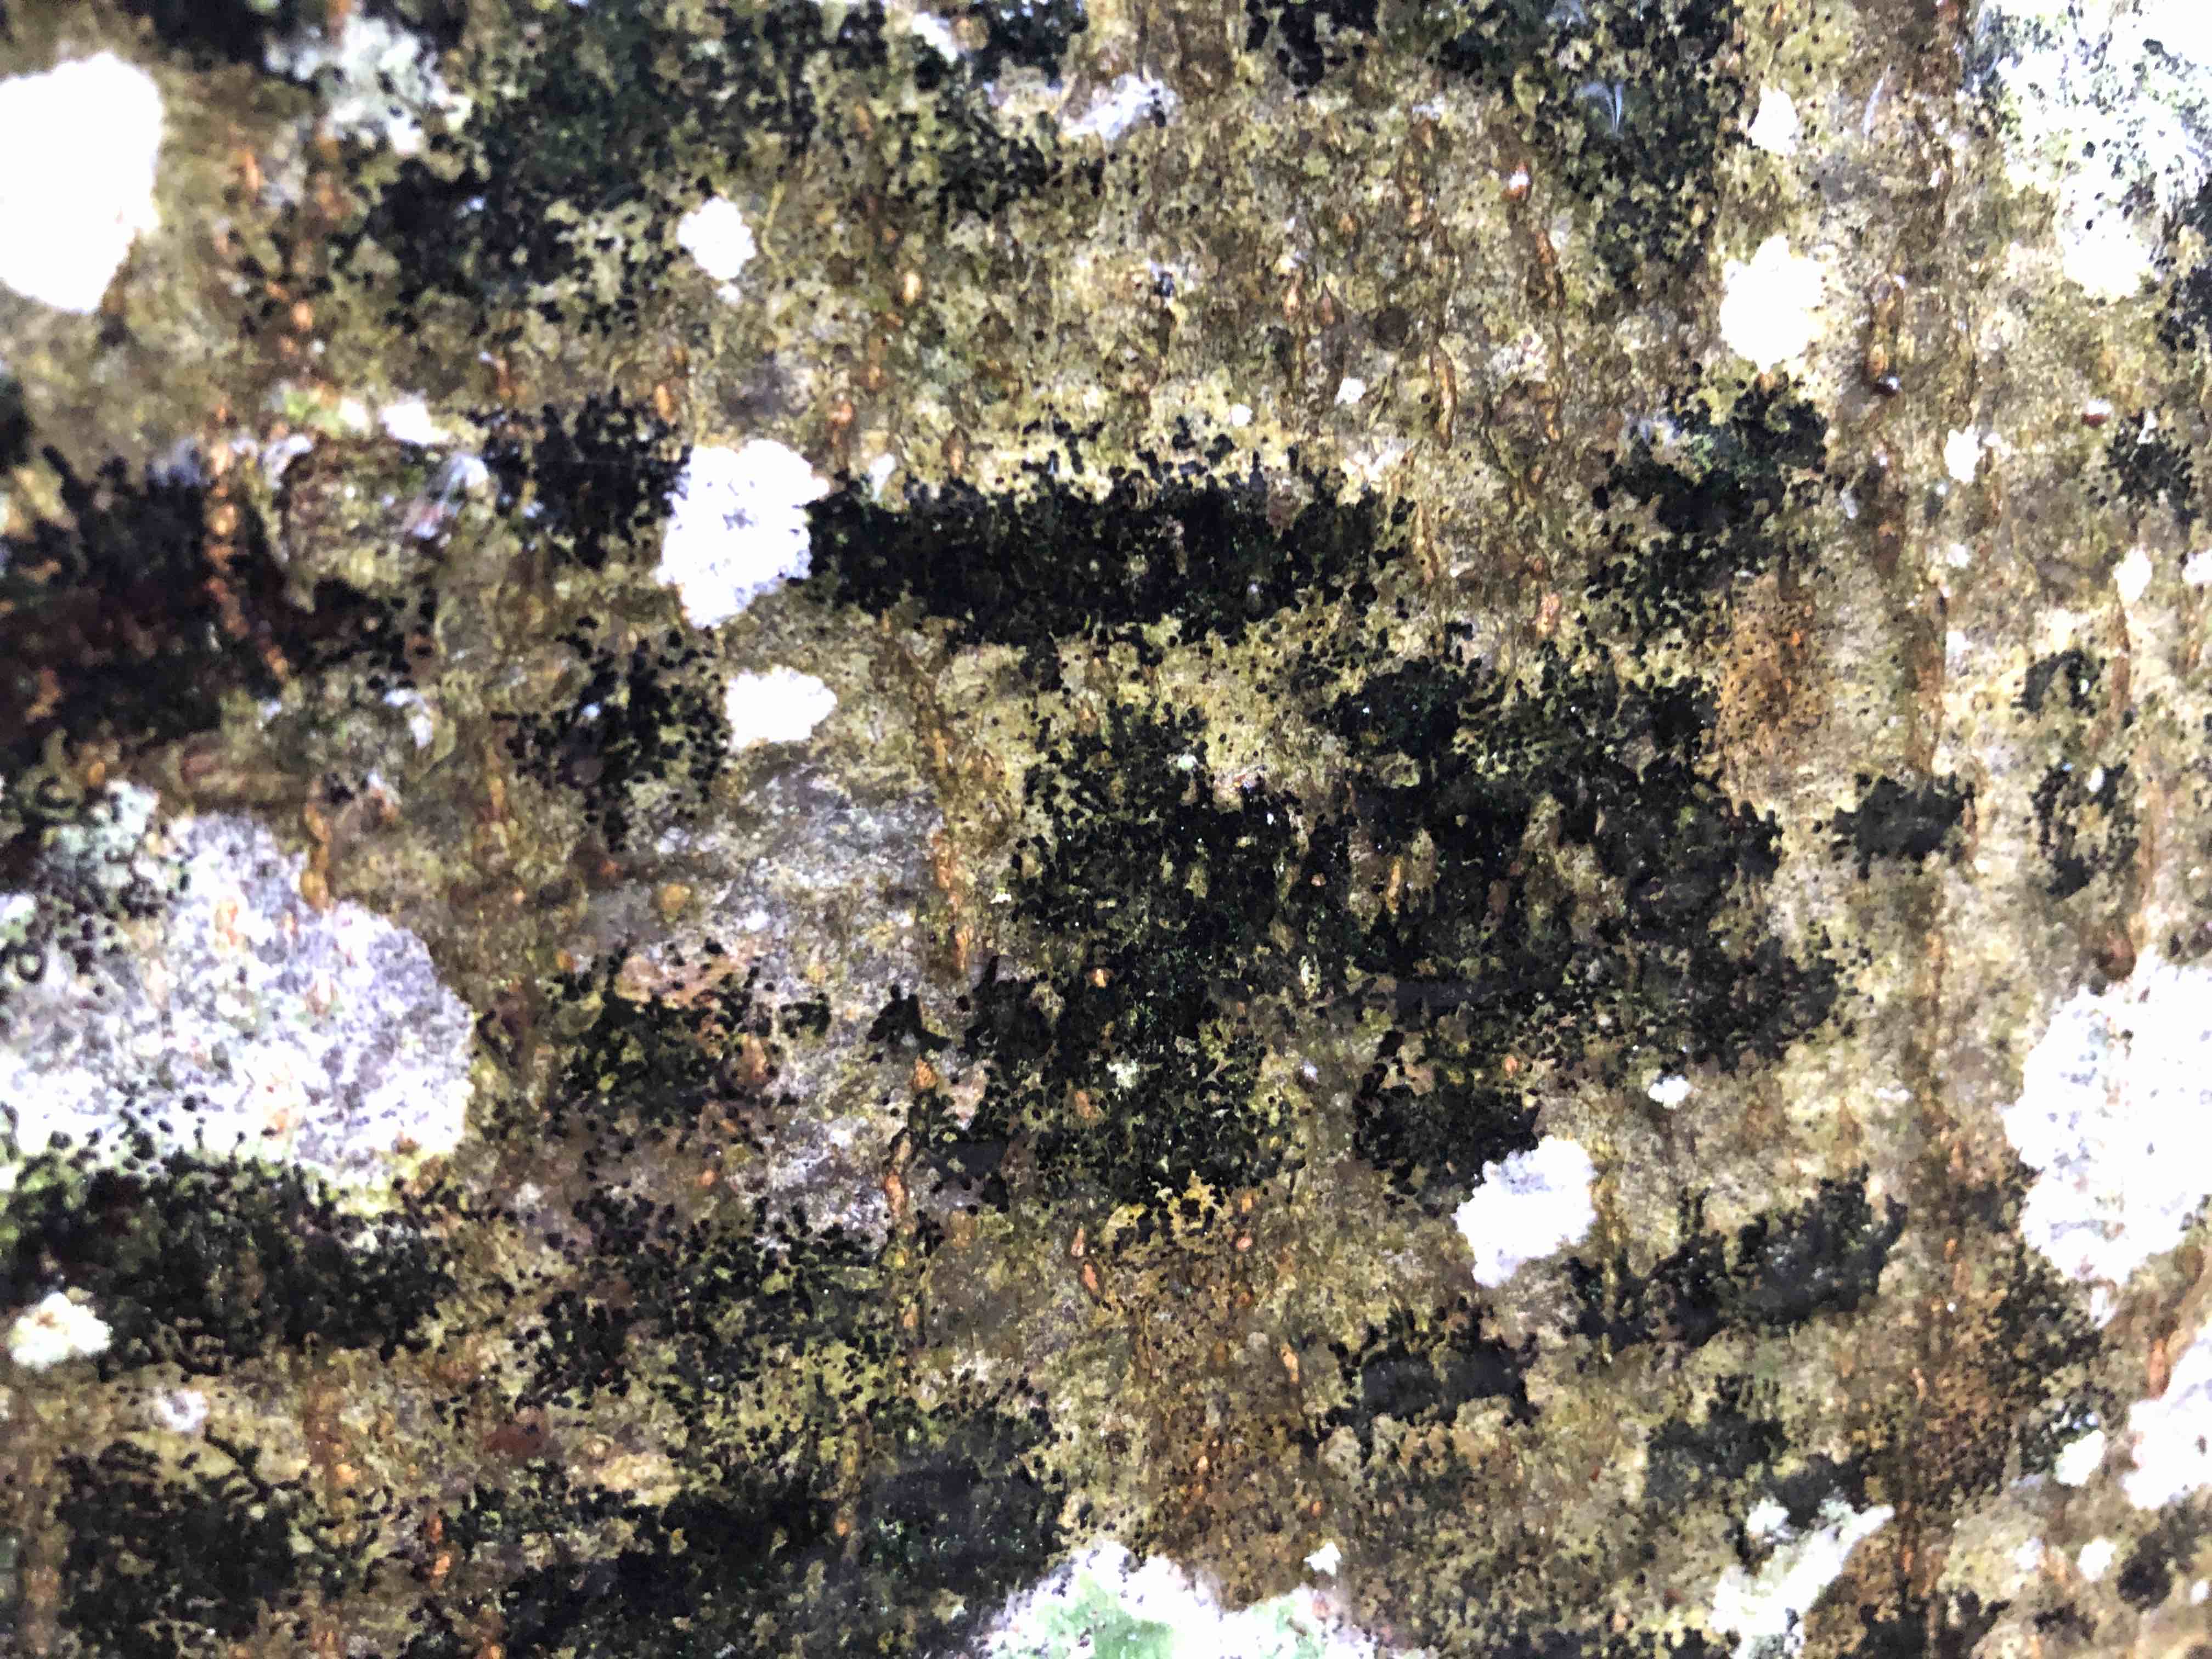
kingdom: Fungi
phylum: Ascomycota
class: Leotiomycetes
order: Rhytismatales
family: Ascodichaenaceae
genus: Ascodichaena
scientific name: Ascodichaena rugosa
